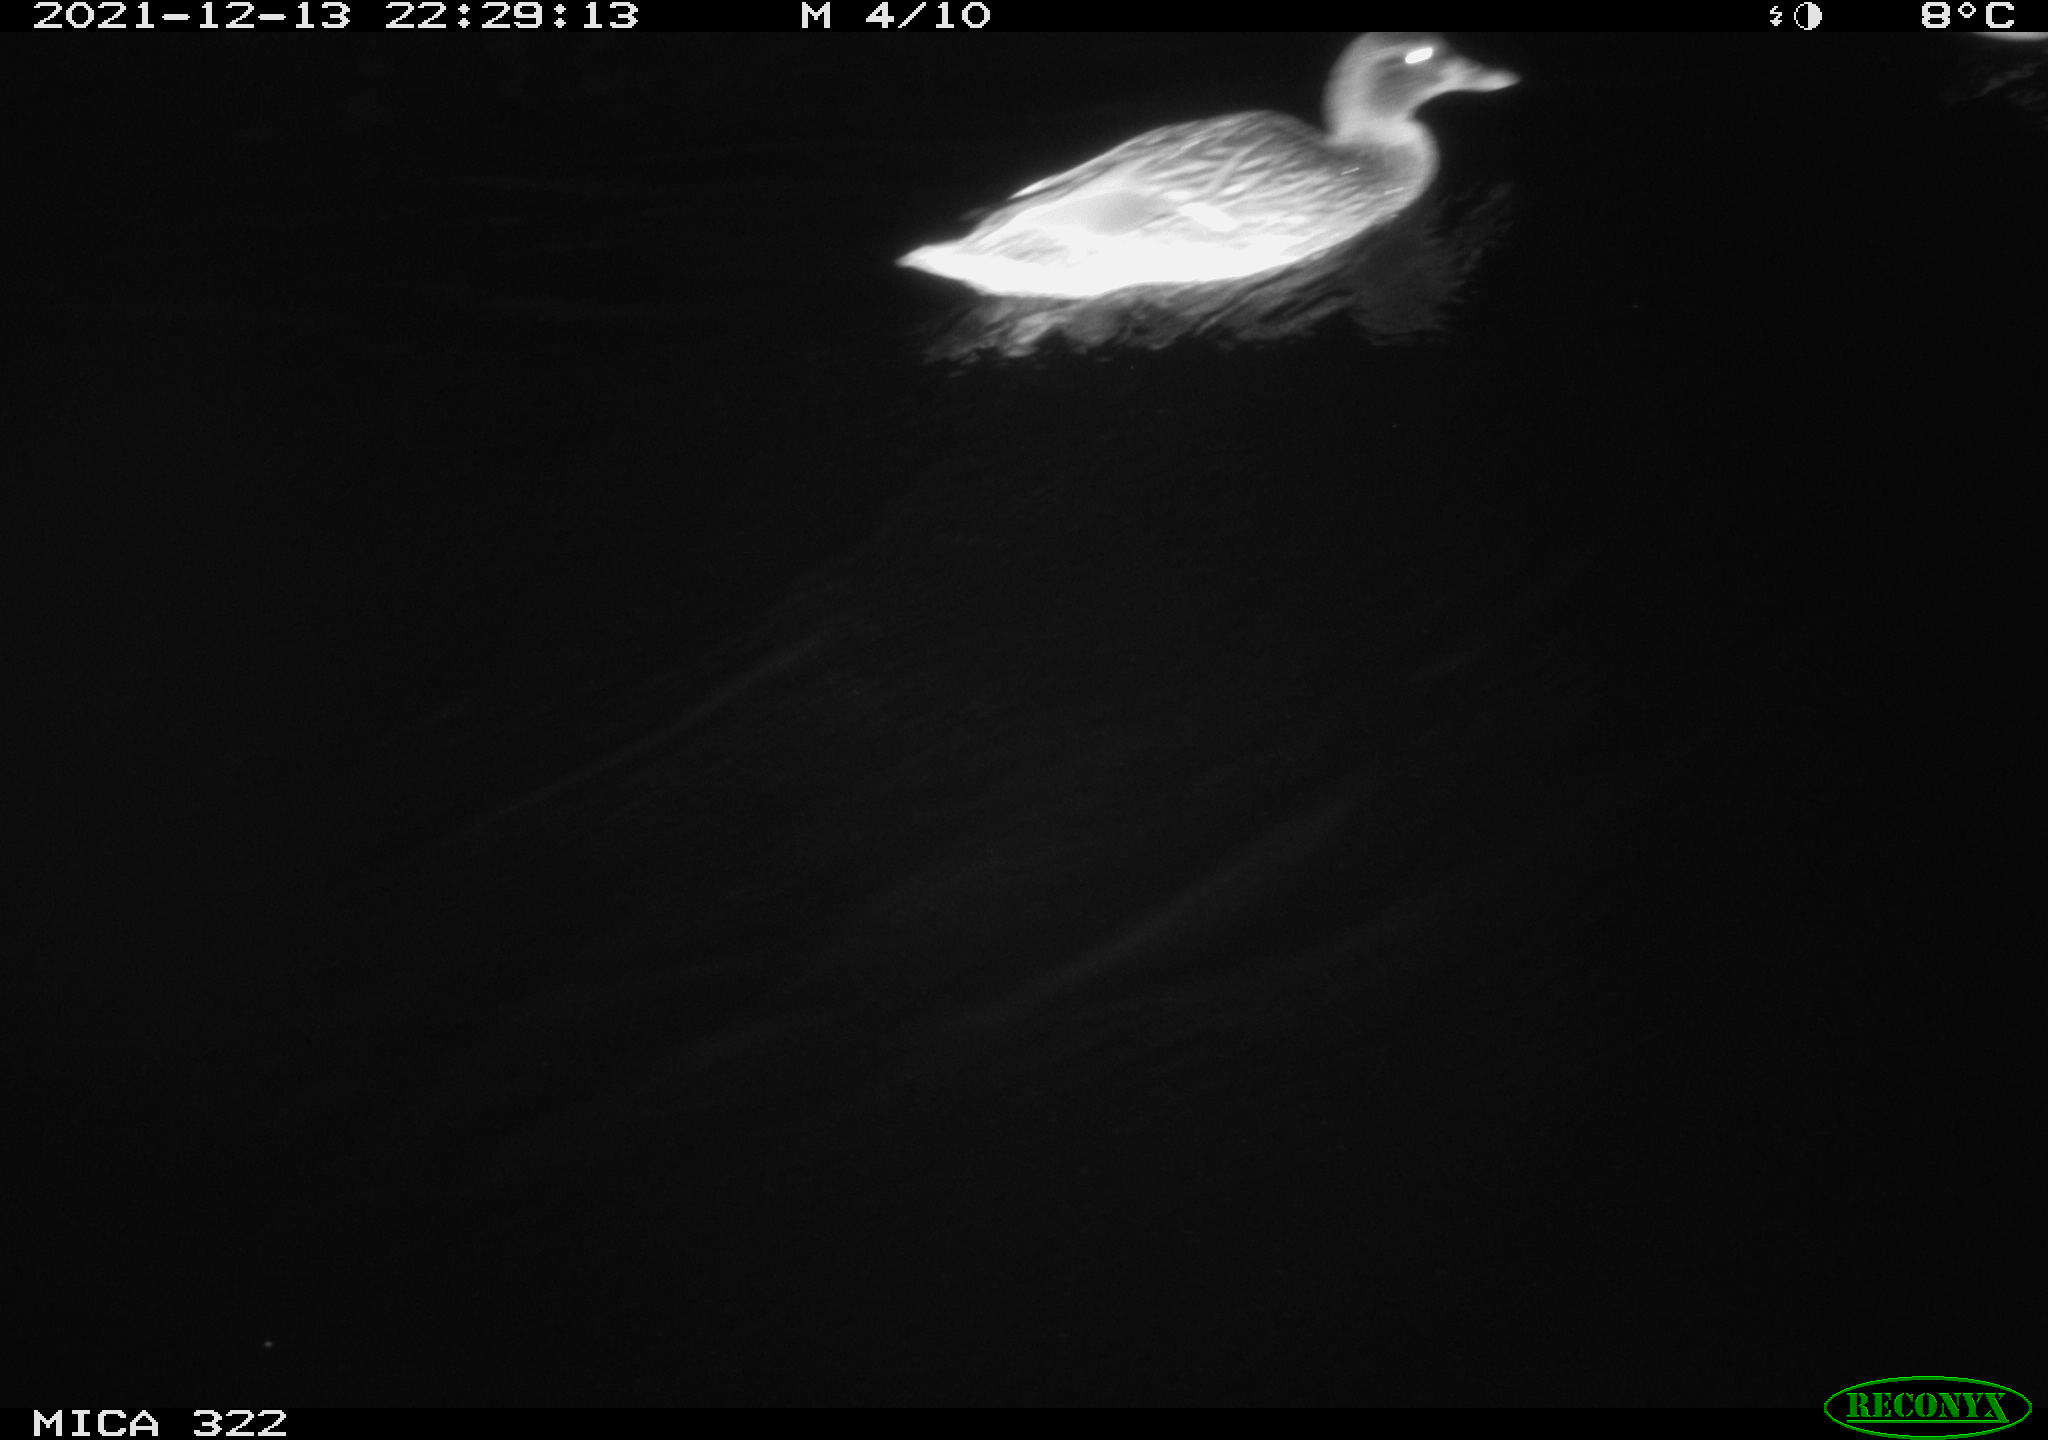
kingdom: Animalia
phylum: Chordata
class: Aves
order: Anseriformes
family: Anatidae
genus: Anas
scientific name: Anas
